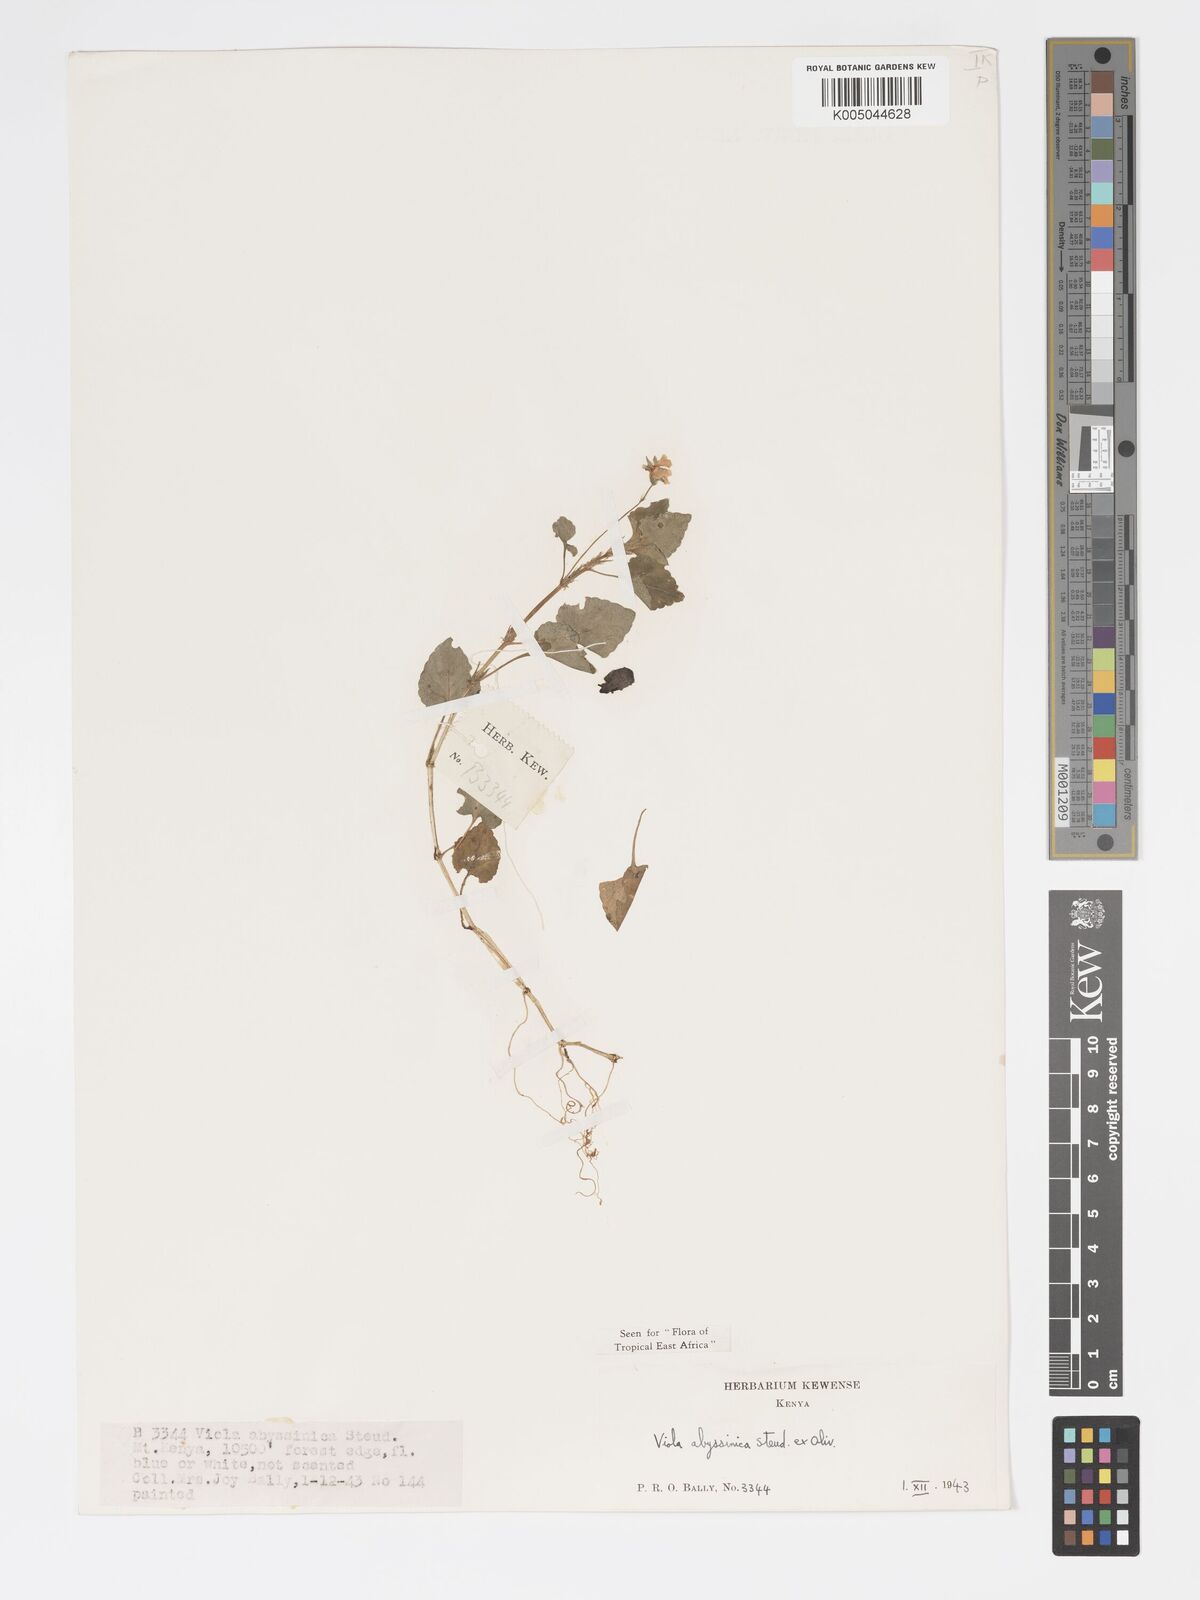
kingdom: Plantae
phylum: Tracheophyta
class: Magnoliopsida
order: Malpighiales
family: Violaceae
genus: Viola
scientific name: Viola abyssinica
